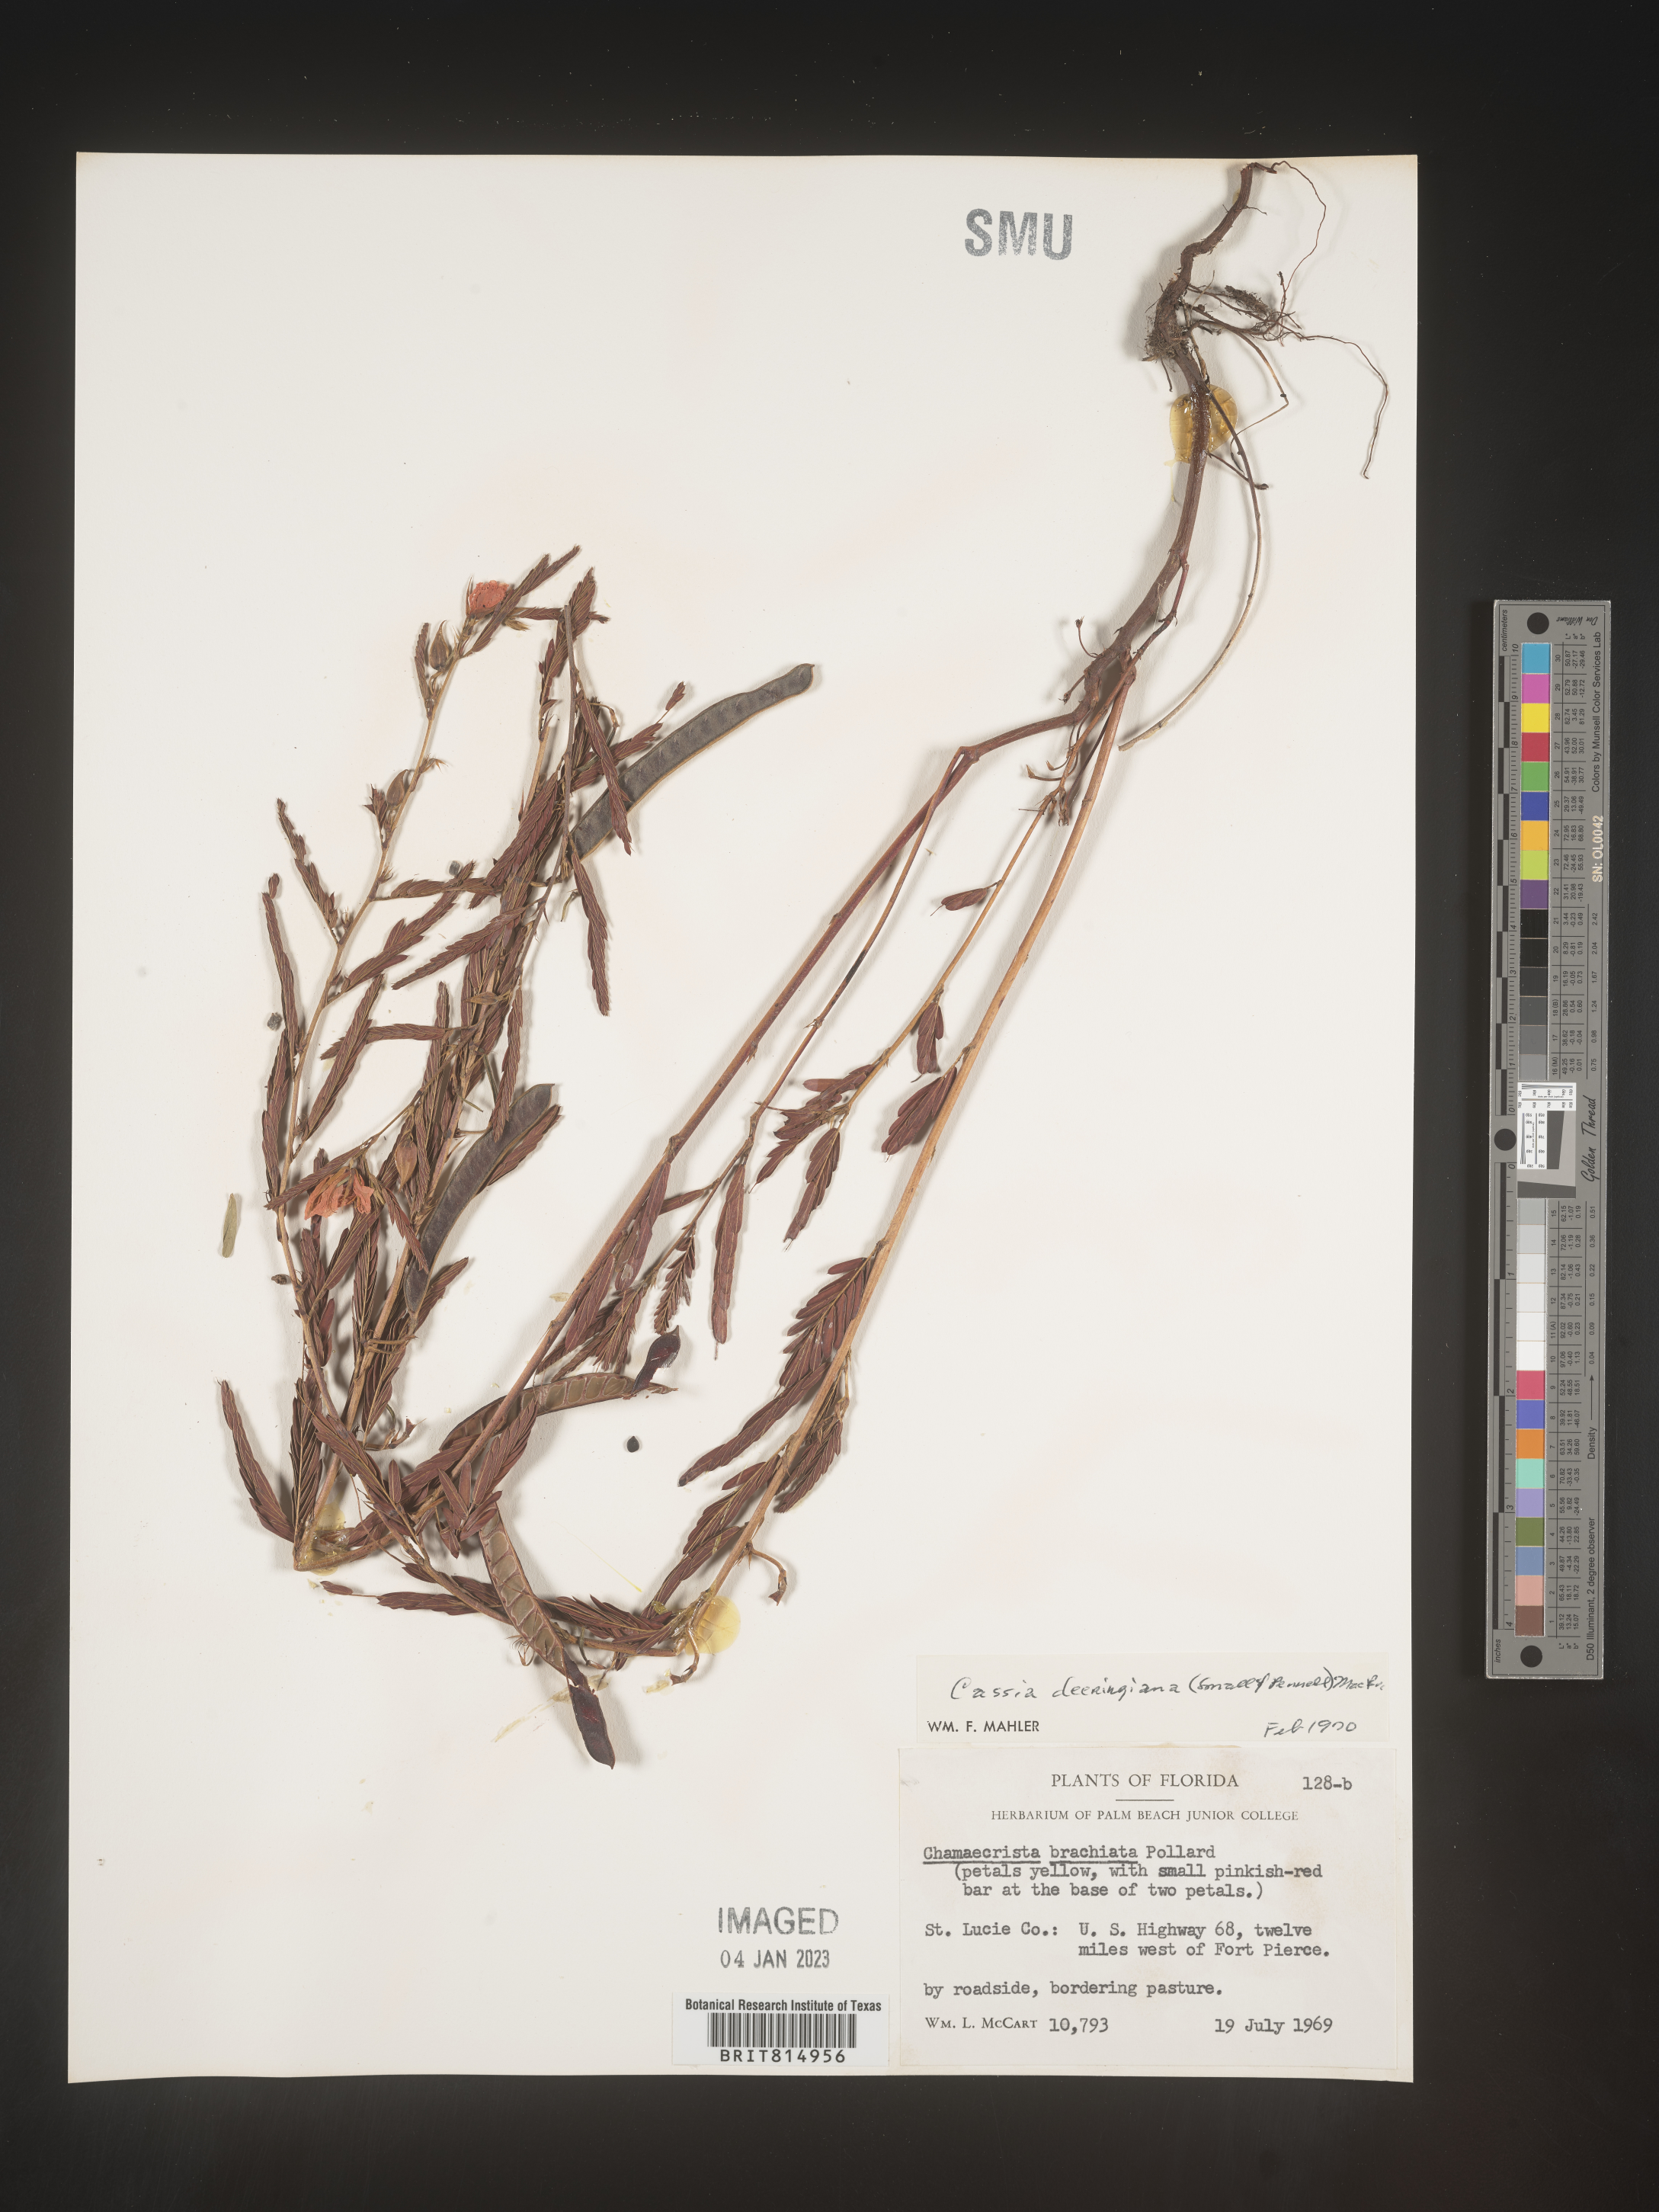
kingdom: Plantae
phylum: Tracheophyta
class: Magnoliopsida
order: Fabales
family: Fabaceae
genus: Cassia
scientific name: Cassia
